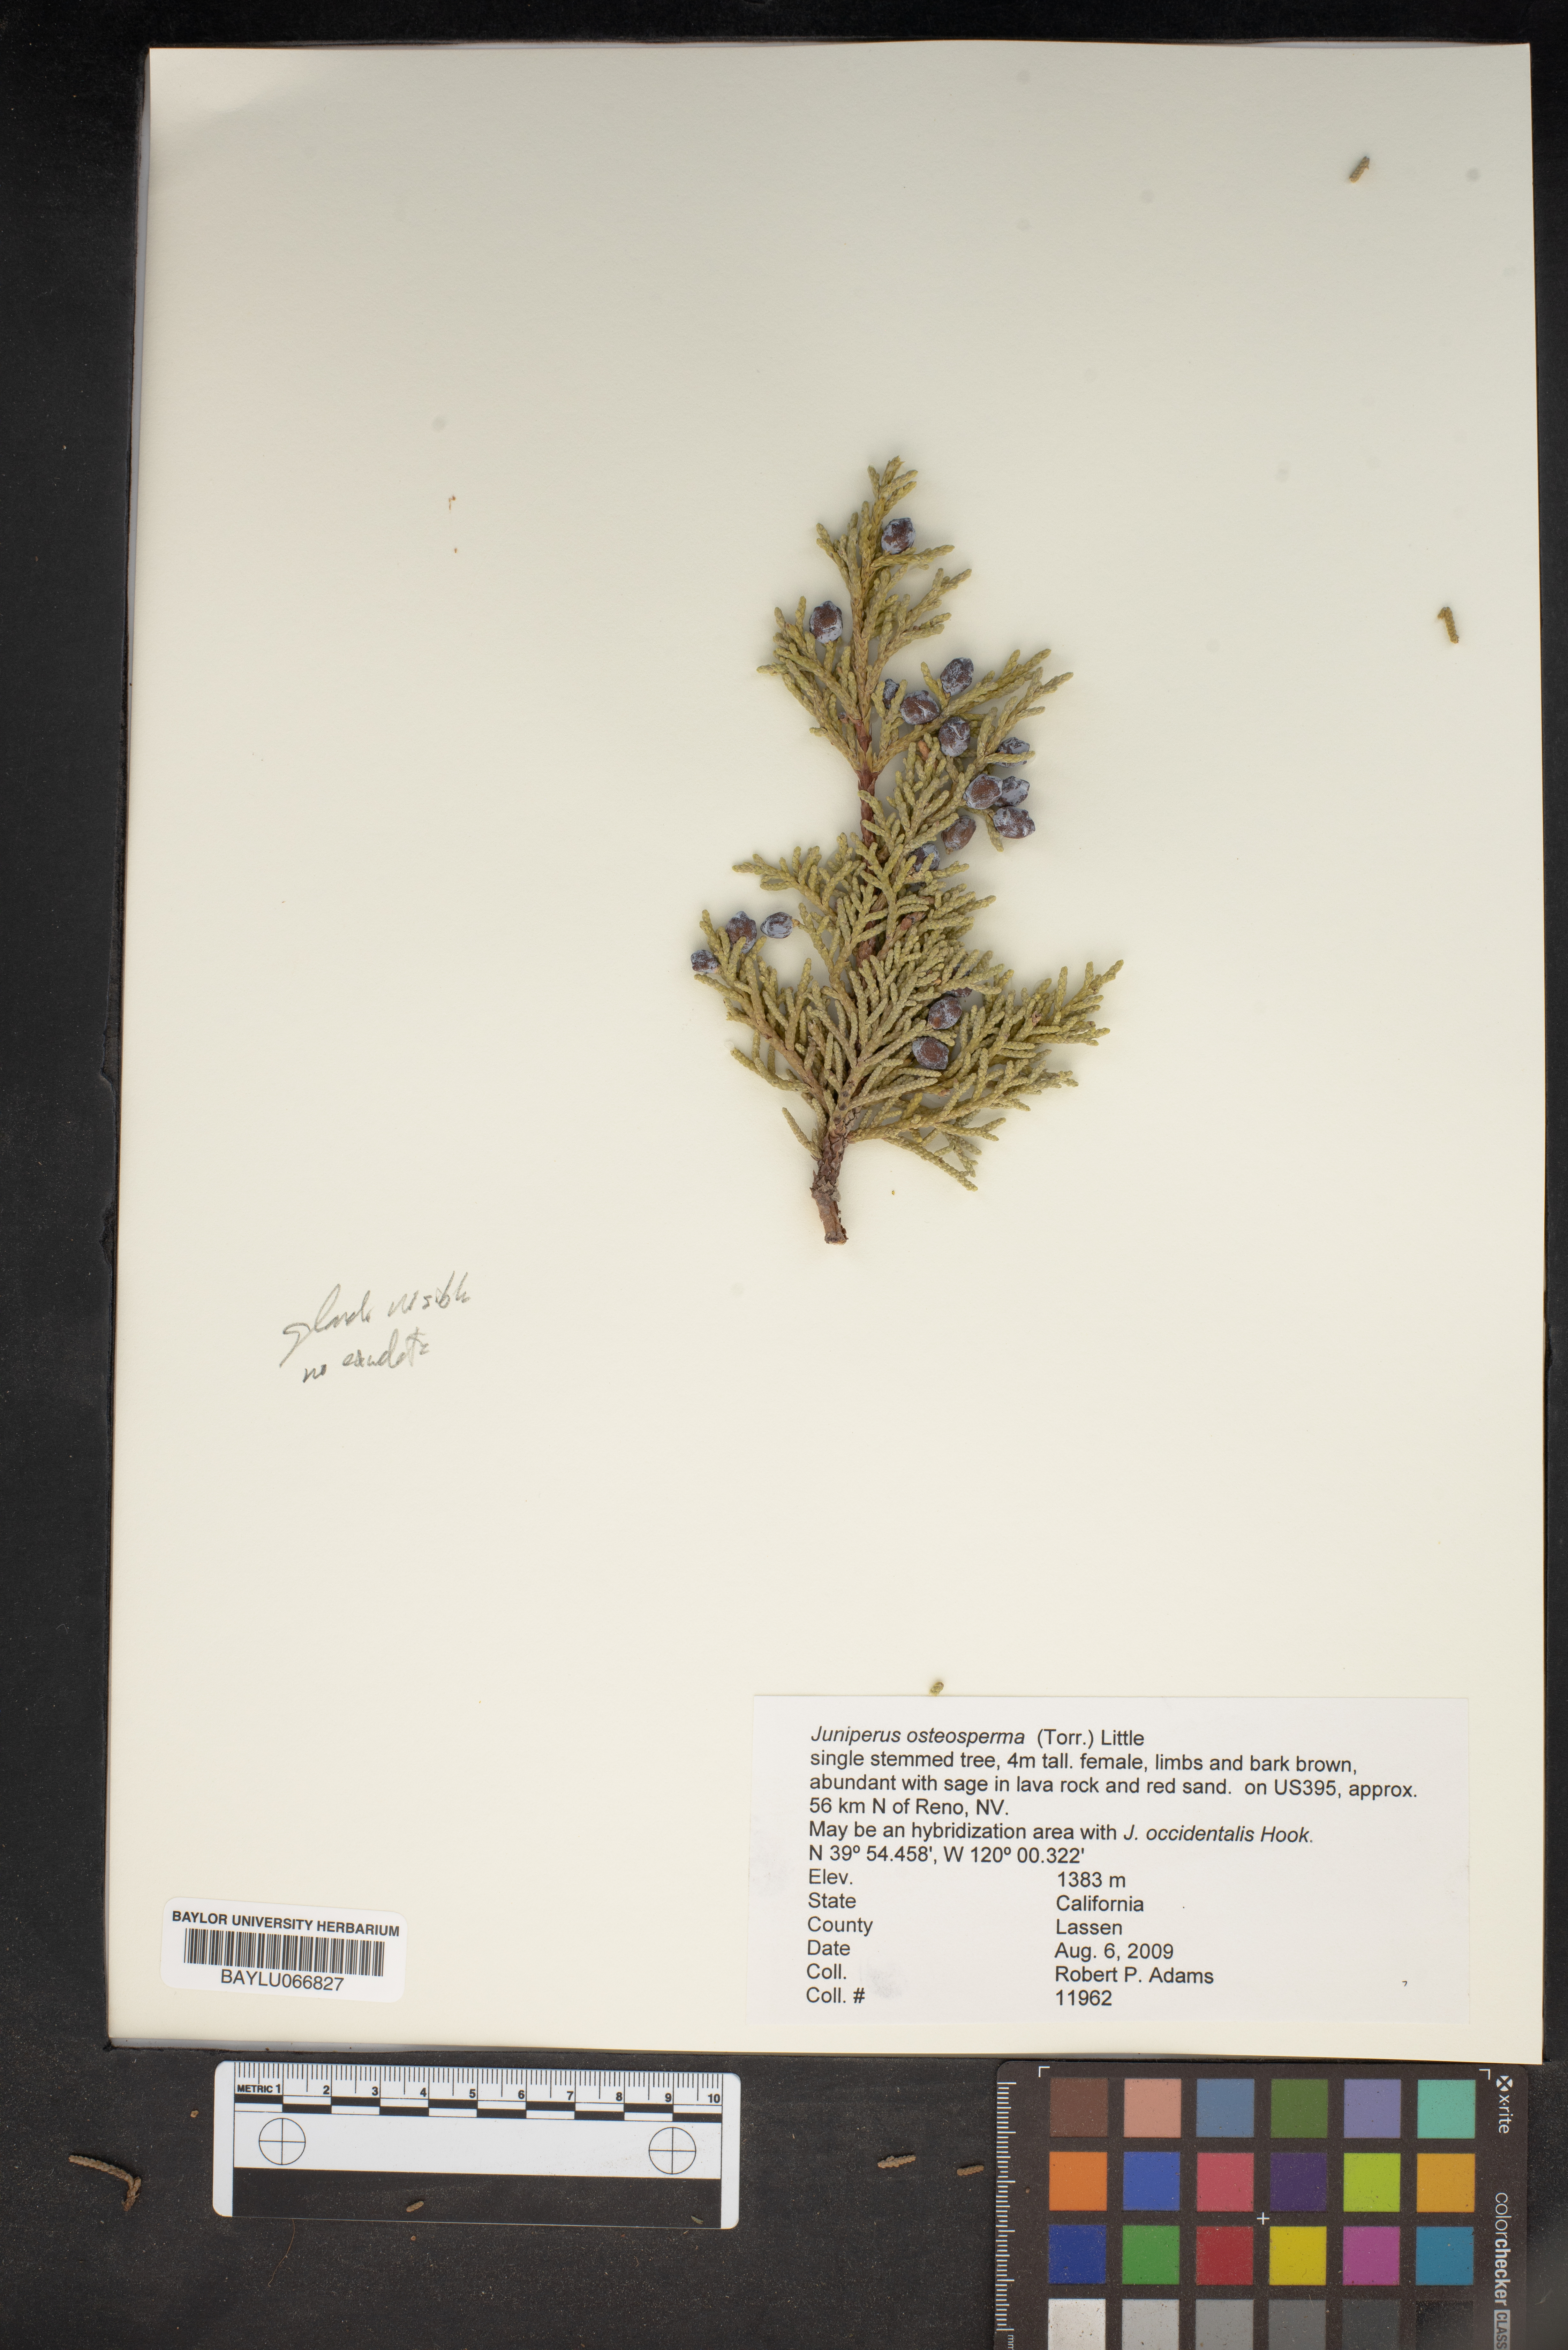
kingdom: Plantae
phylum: Tracheophyta
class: Pinopsida
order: Pinales
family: Cupressaceae
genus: Juniperus
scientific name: Juniperus osteosperma
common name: Utah juniper
